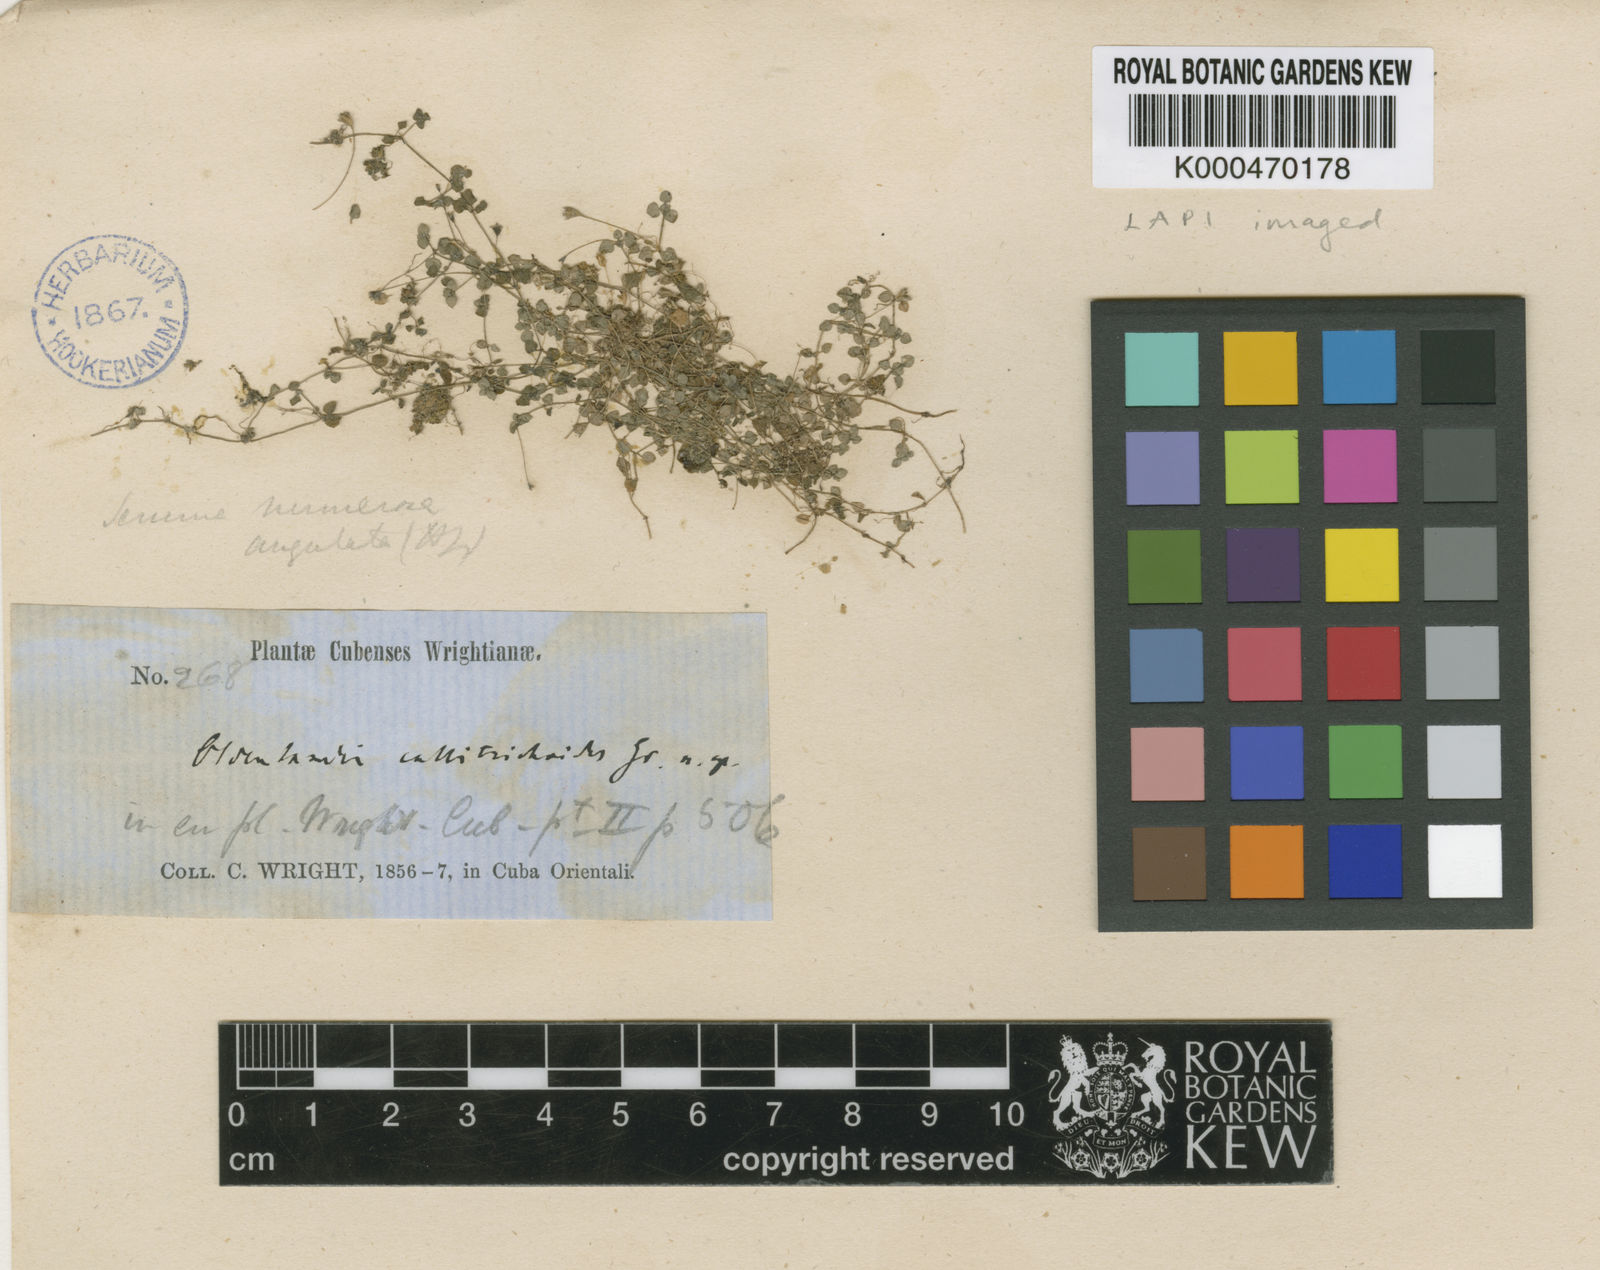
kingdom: Plantae
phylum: Tracheophyta
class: Magnoliopsida
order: Gentianales
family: Rubiaceae
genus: Oldenlandiopsis
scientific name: Oldenlandiopsis callitrichoides
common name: Creeping-bluet
